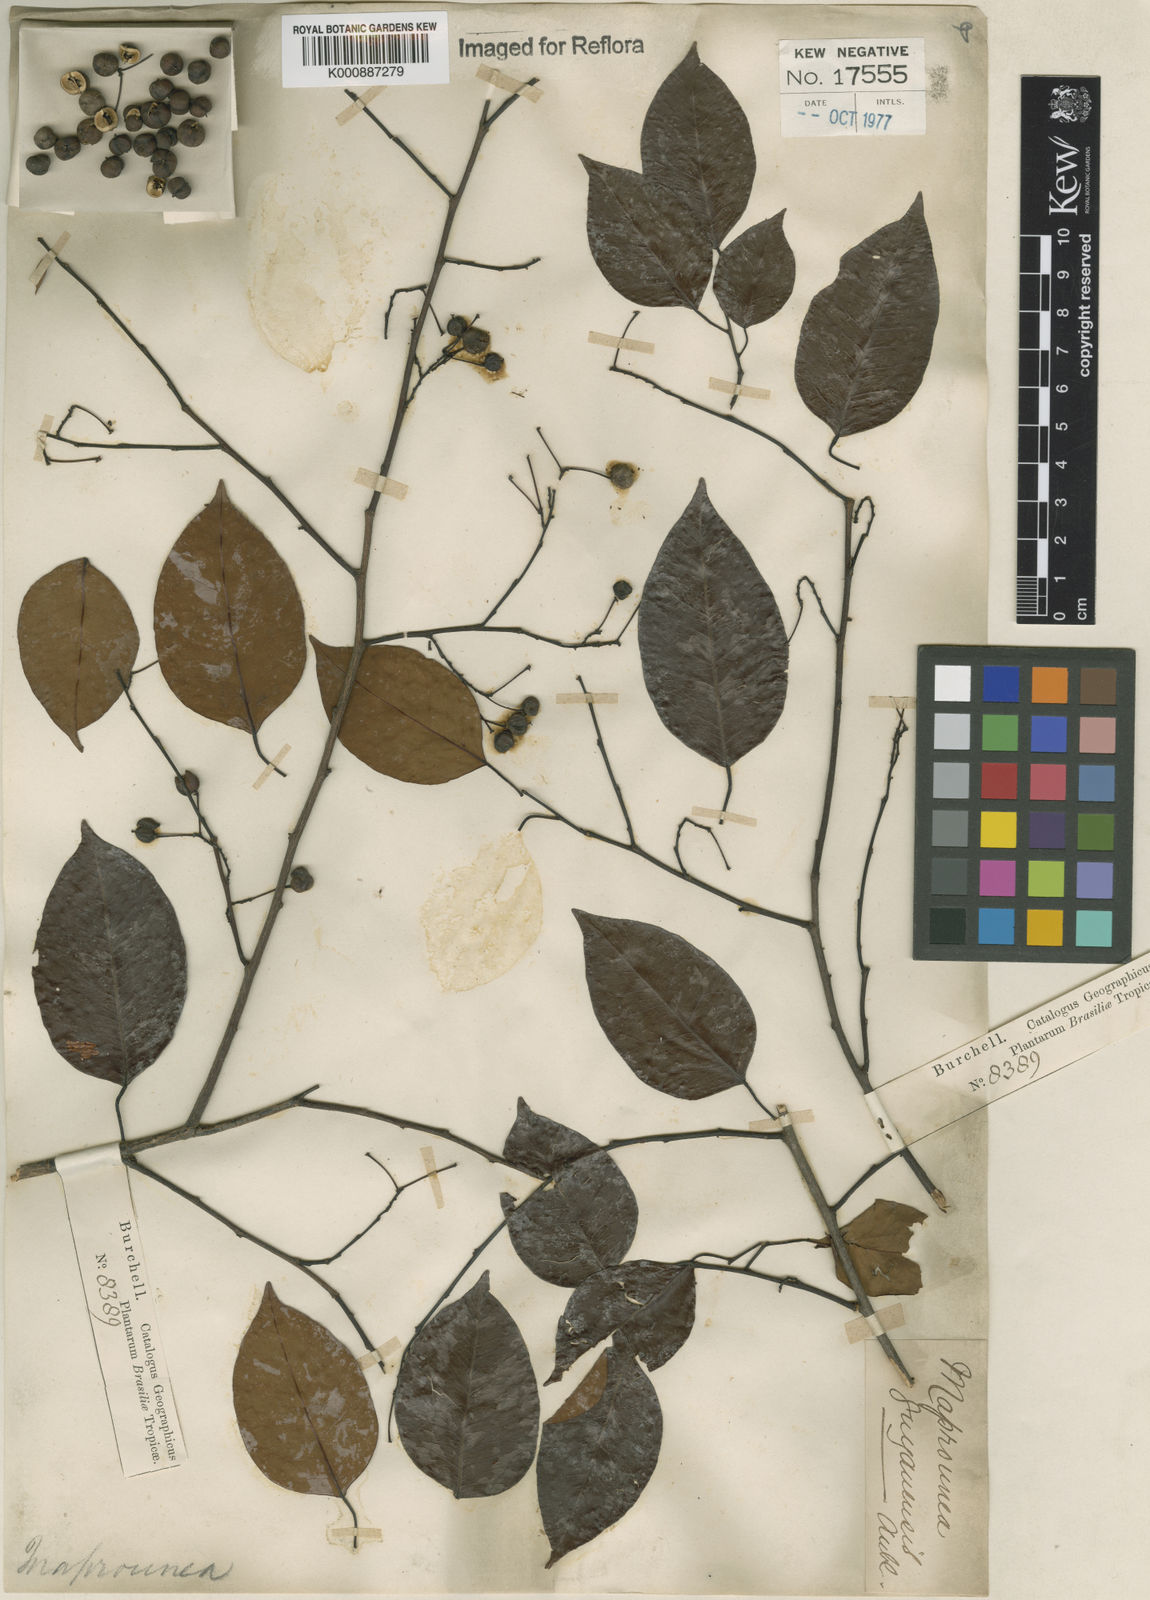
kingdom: Plantae
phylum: Tracheophyta
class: Magnoliopsida
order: Malpighiales
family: Euphorbiaceae
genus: Maprounea
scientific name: Maprounea guianensis
